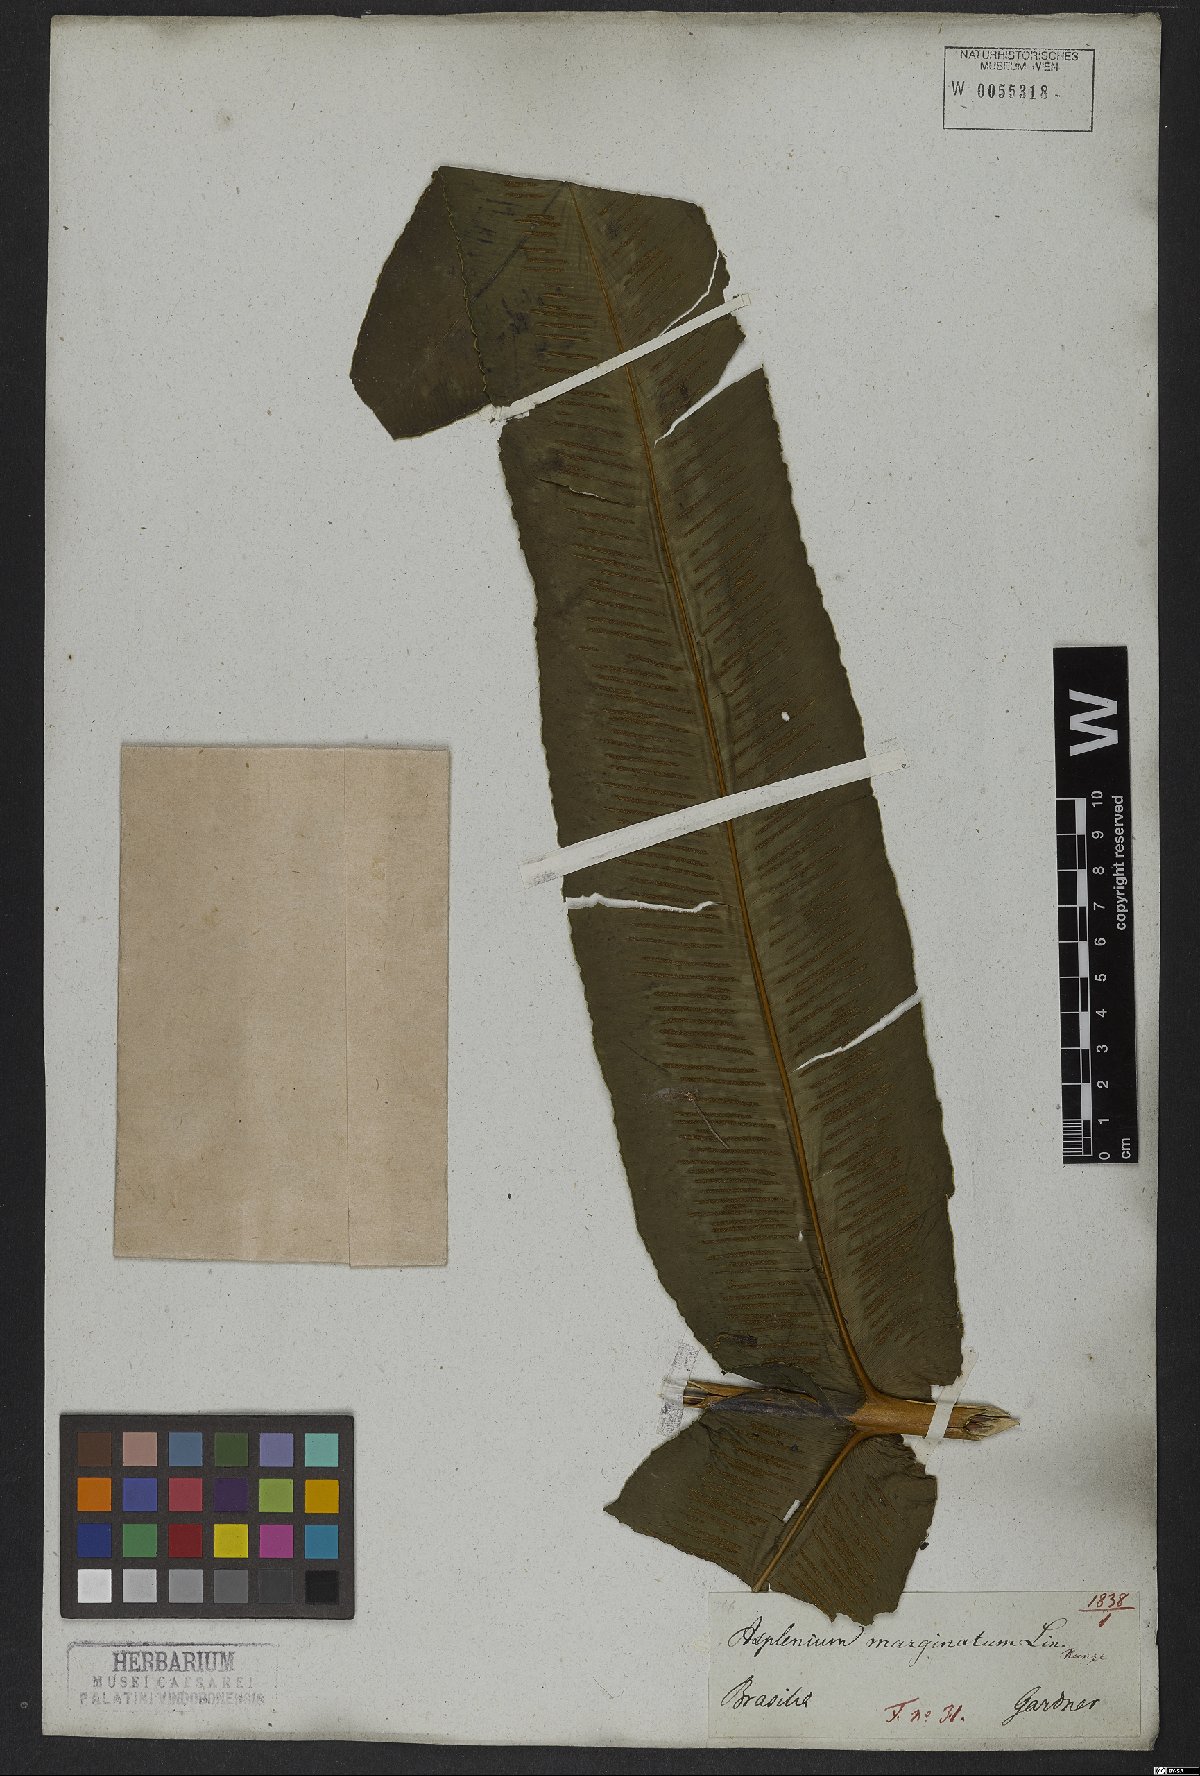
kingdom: Plantae
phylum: Tracheophyta
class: Polypodiopsida
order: Polypodiales
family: Hemidictyaceae
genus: Hemidictyum
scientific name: Hemidictyum marginatum
